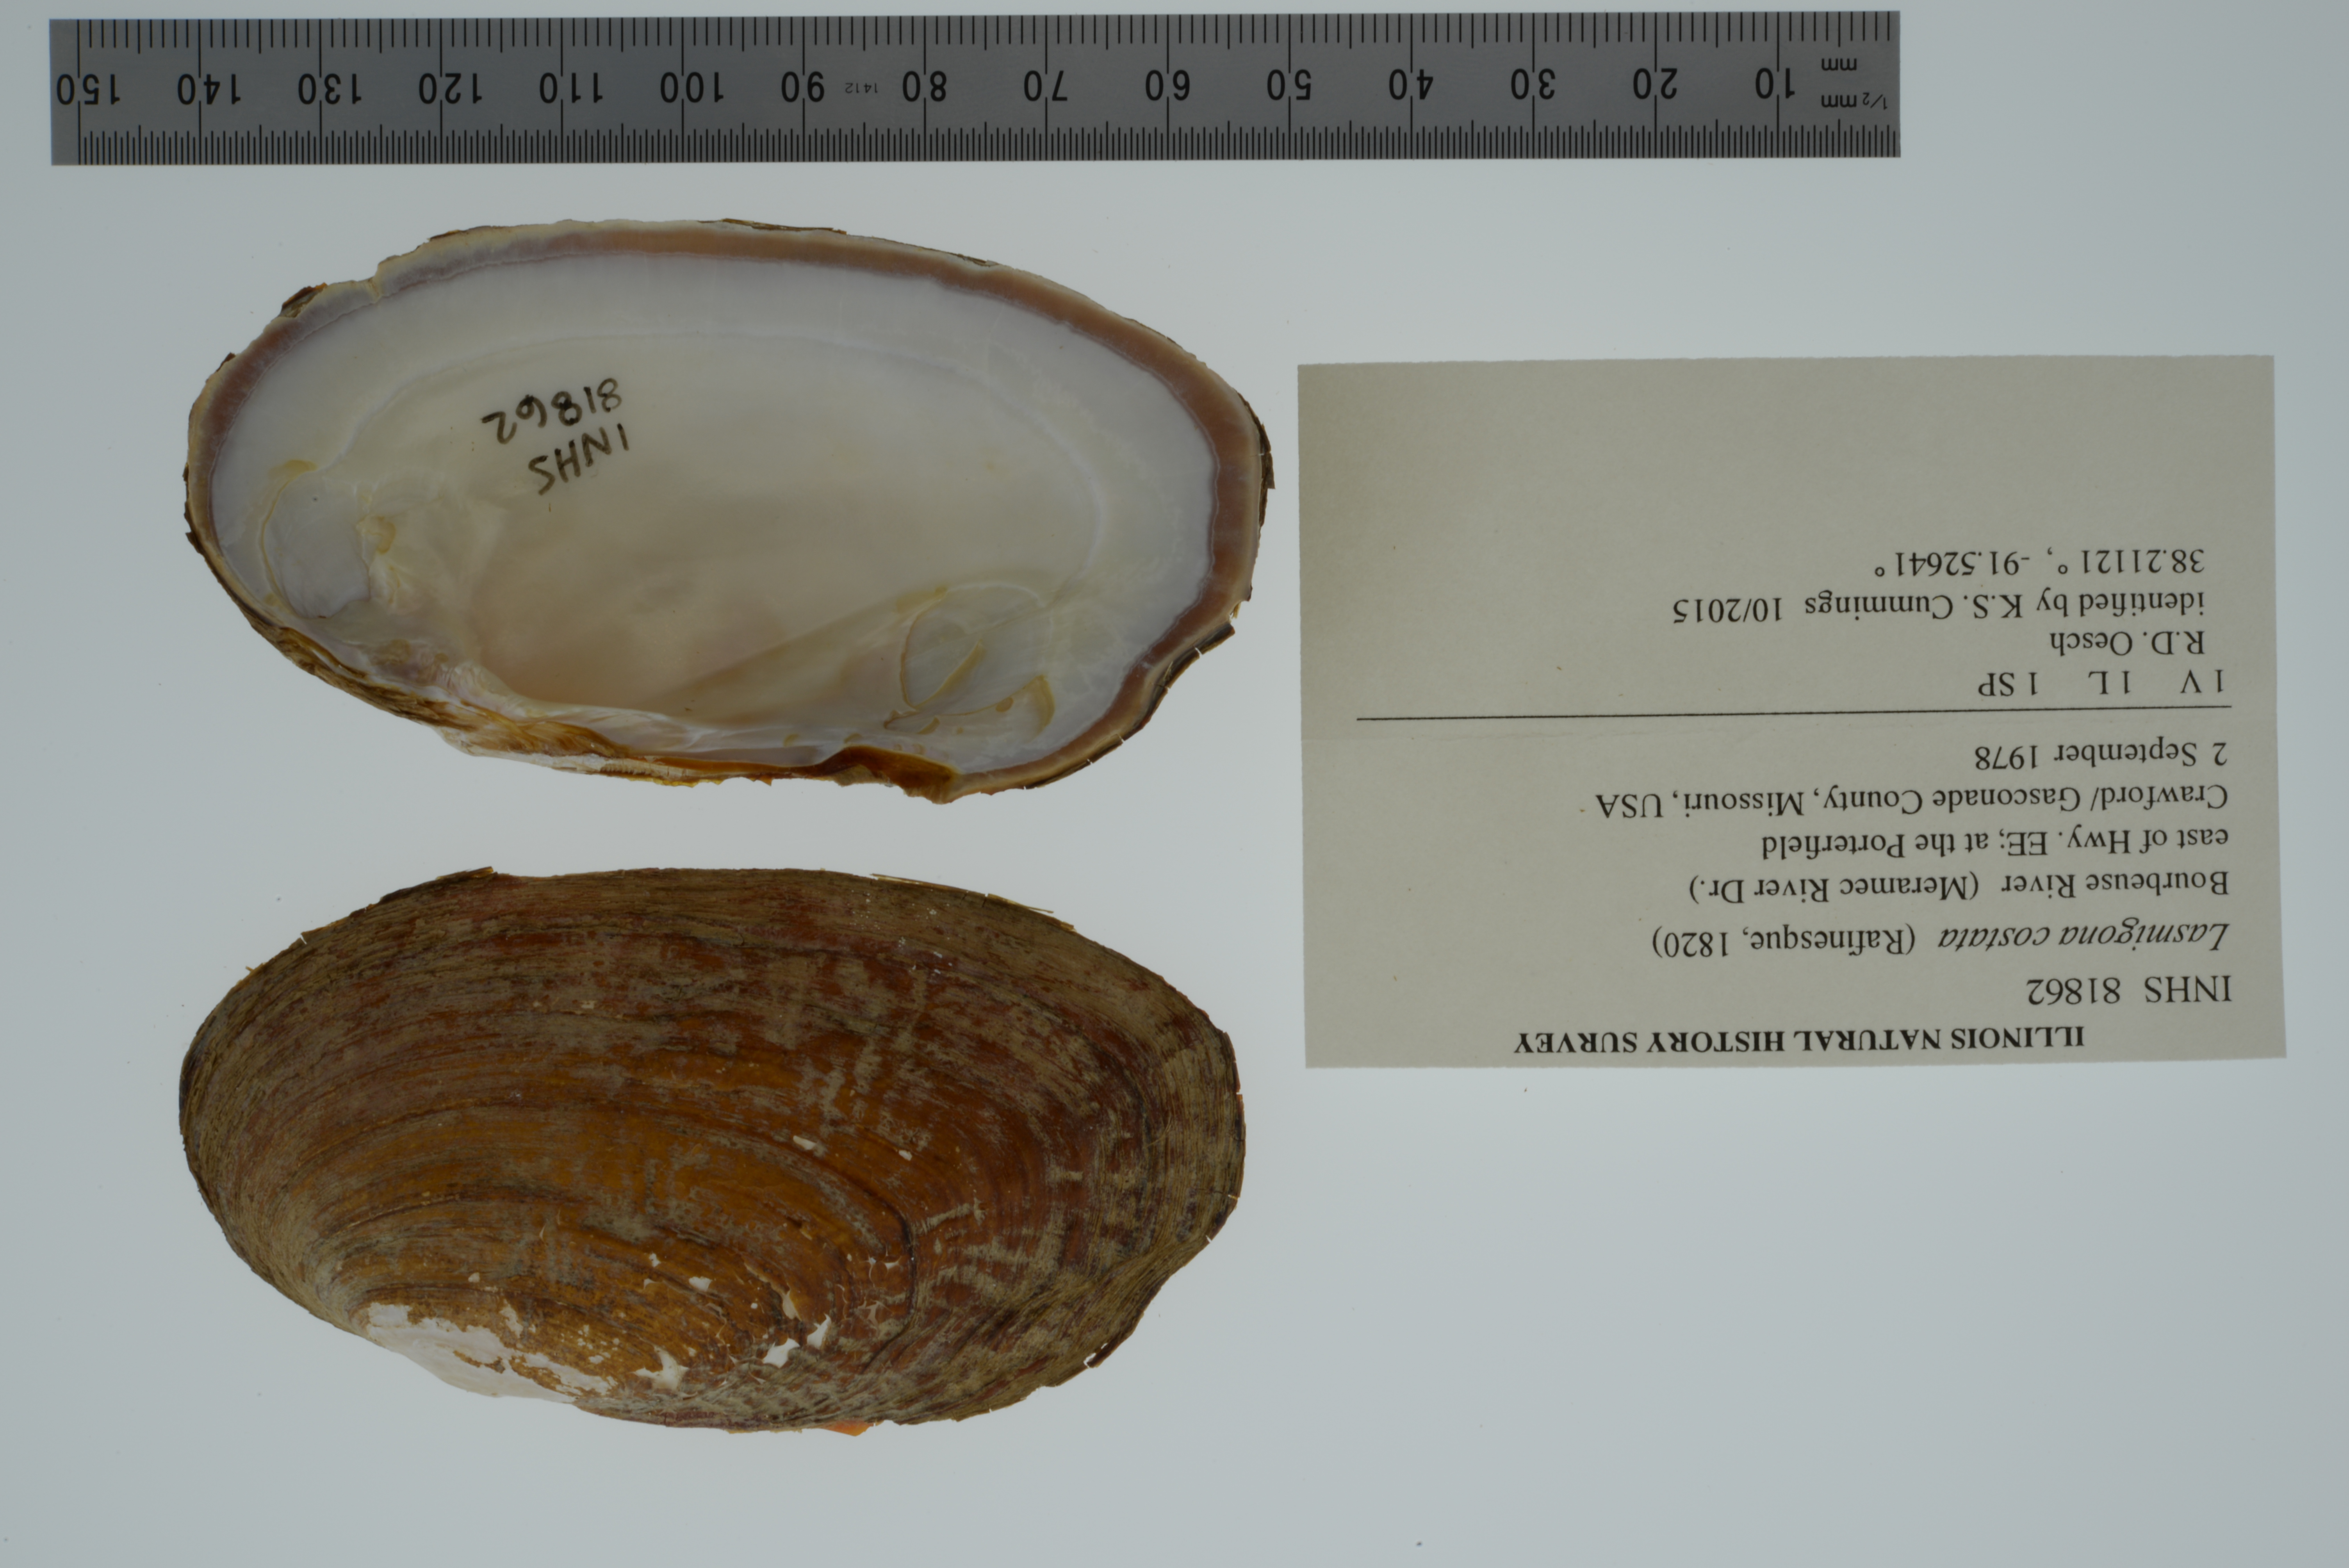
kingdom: Animalia
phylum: Mollusca
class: Bivalvia
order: Unionida
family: Unionidae
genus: Lasmigona
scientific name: Lasmigona costata
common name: Flutedshell
